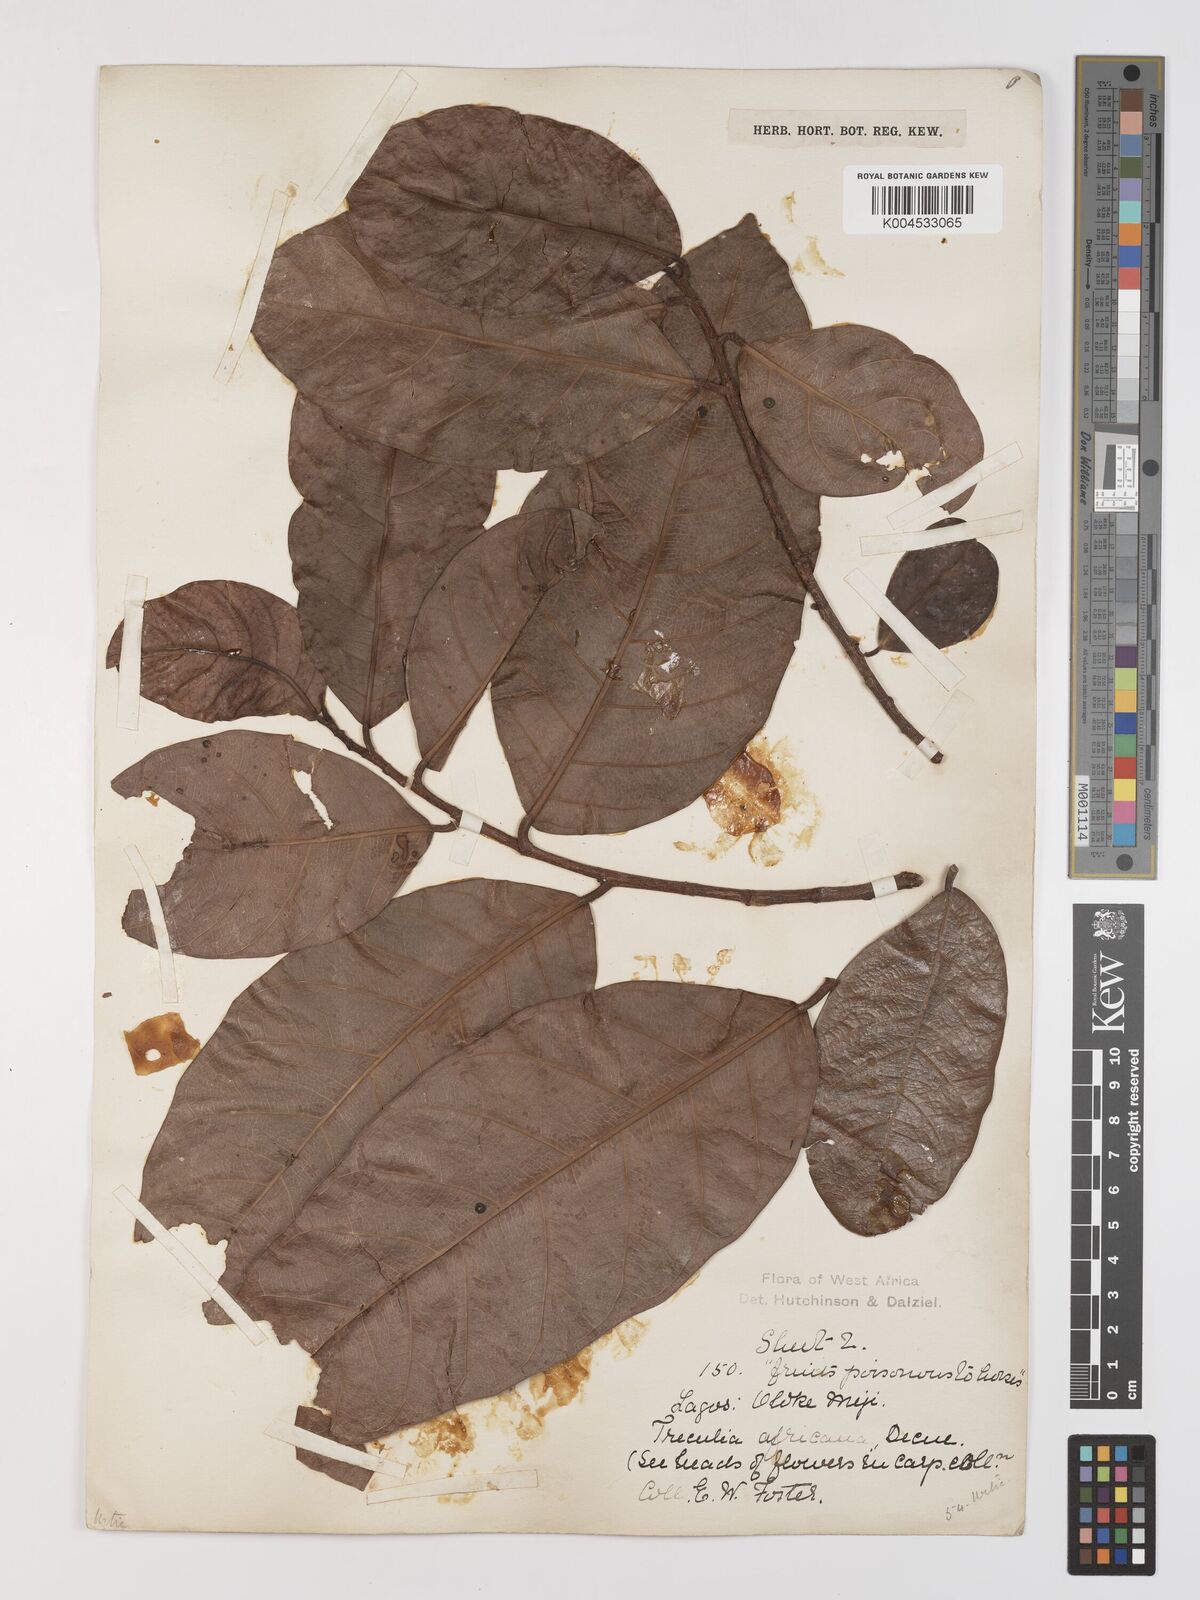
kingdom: Plantae
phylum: Tracheophyta
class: Magnoliopsida
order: Rosales
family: Moraceae
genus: Treculia
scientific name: Treculia africana
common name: African breadfruit
